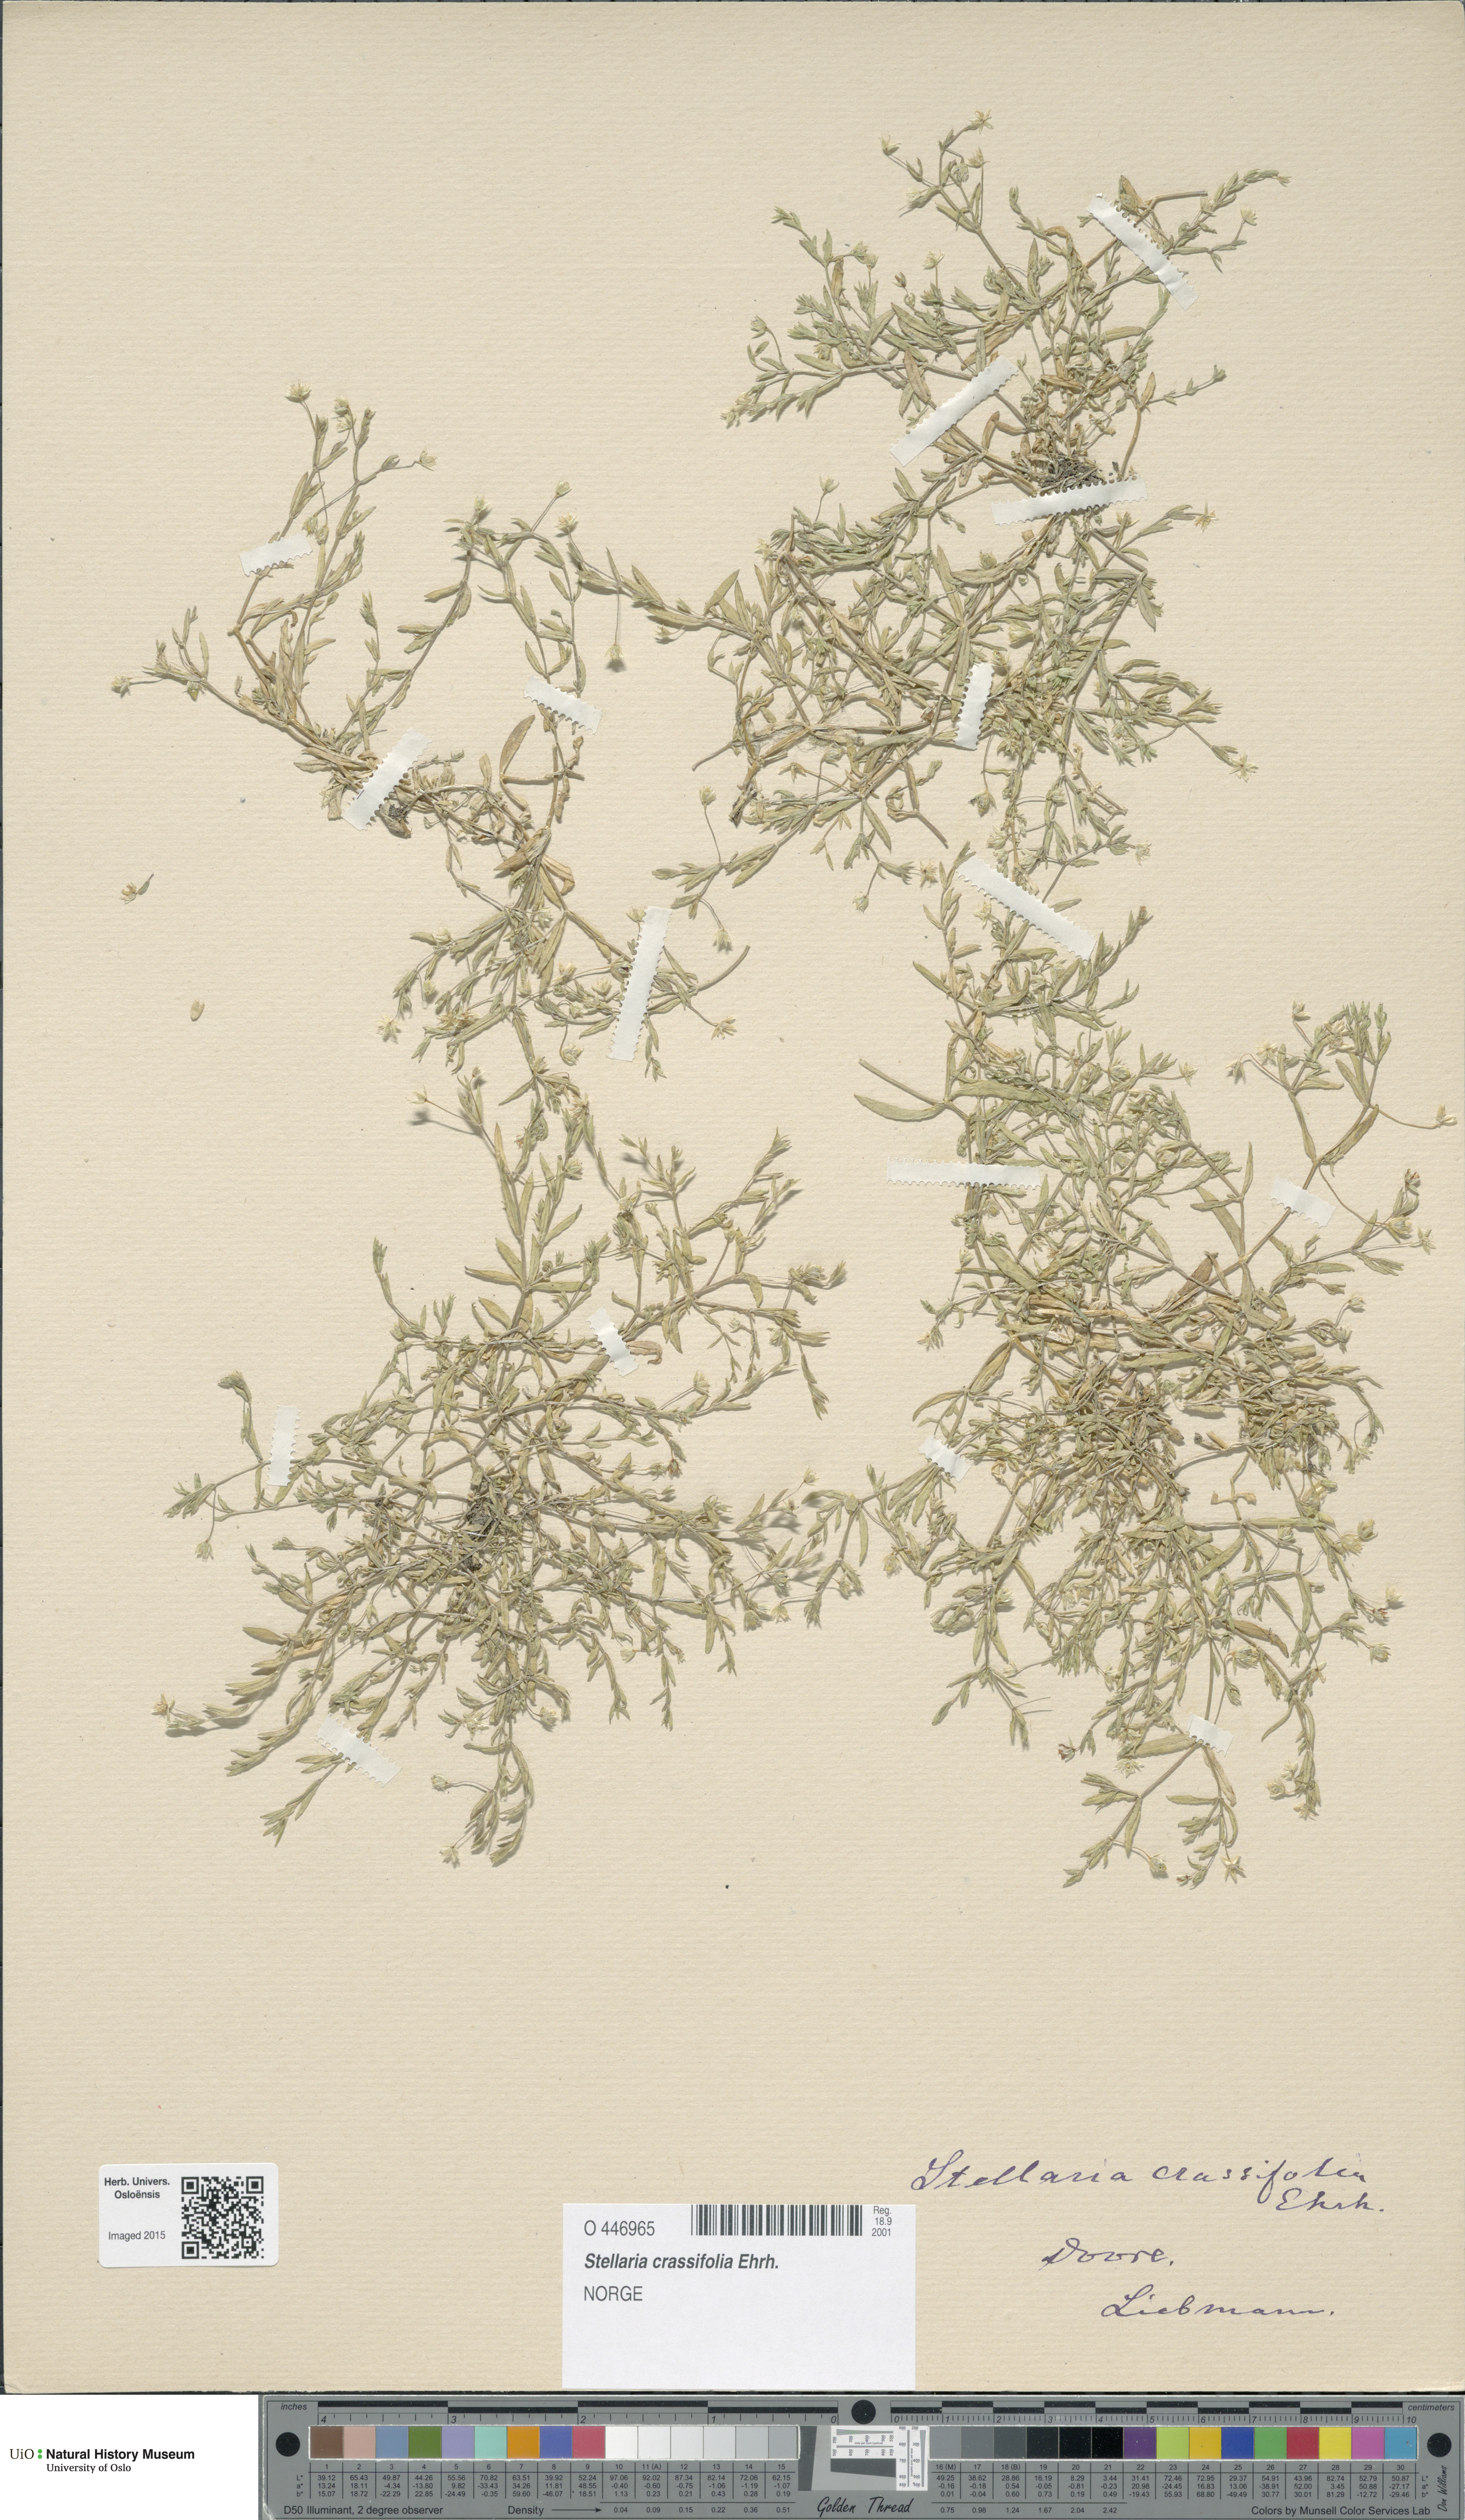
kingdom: Plantae
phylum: Tracheophyta
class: Magnoliopsida
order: Caryophyllales
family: Caryophyllaceae
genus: Stellaria
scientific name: Stellaria crassifolia
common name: Fleshy starwort
